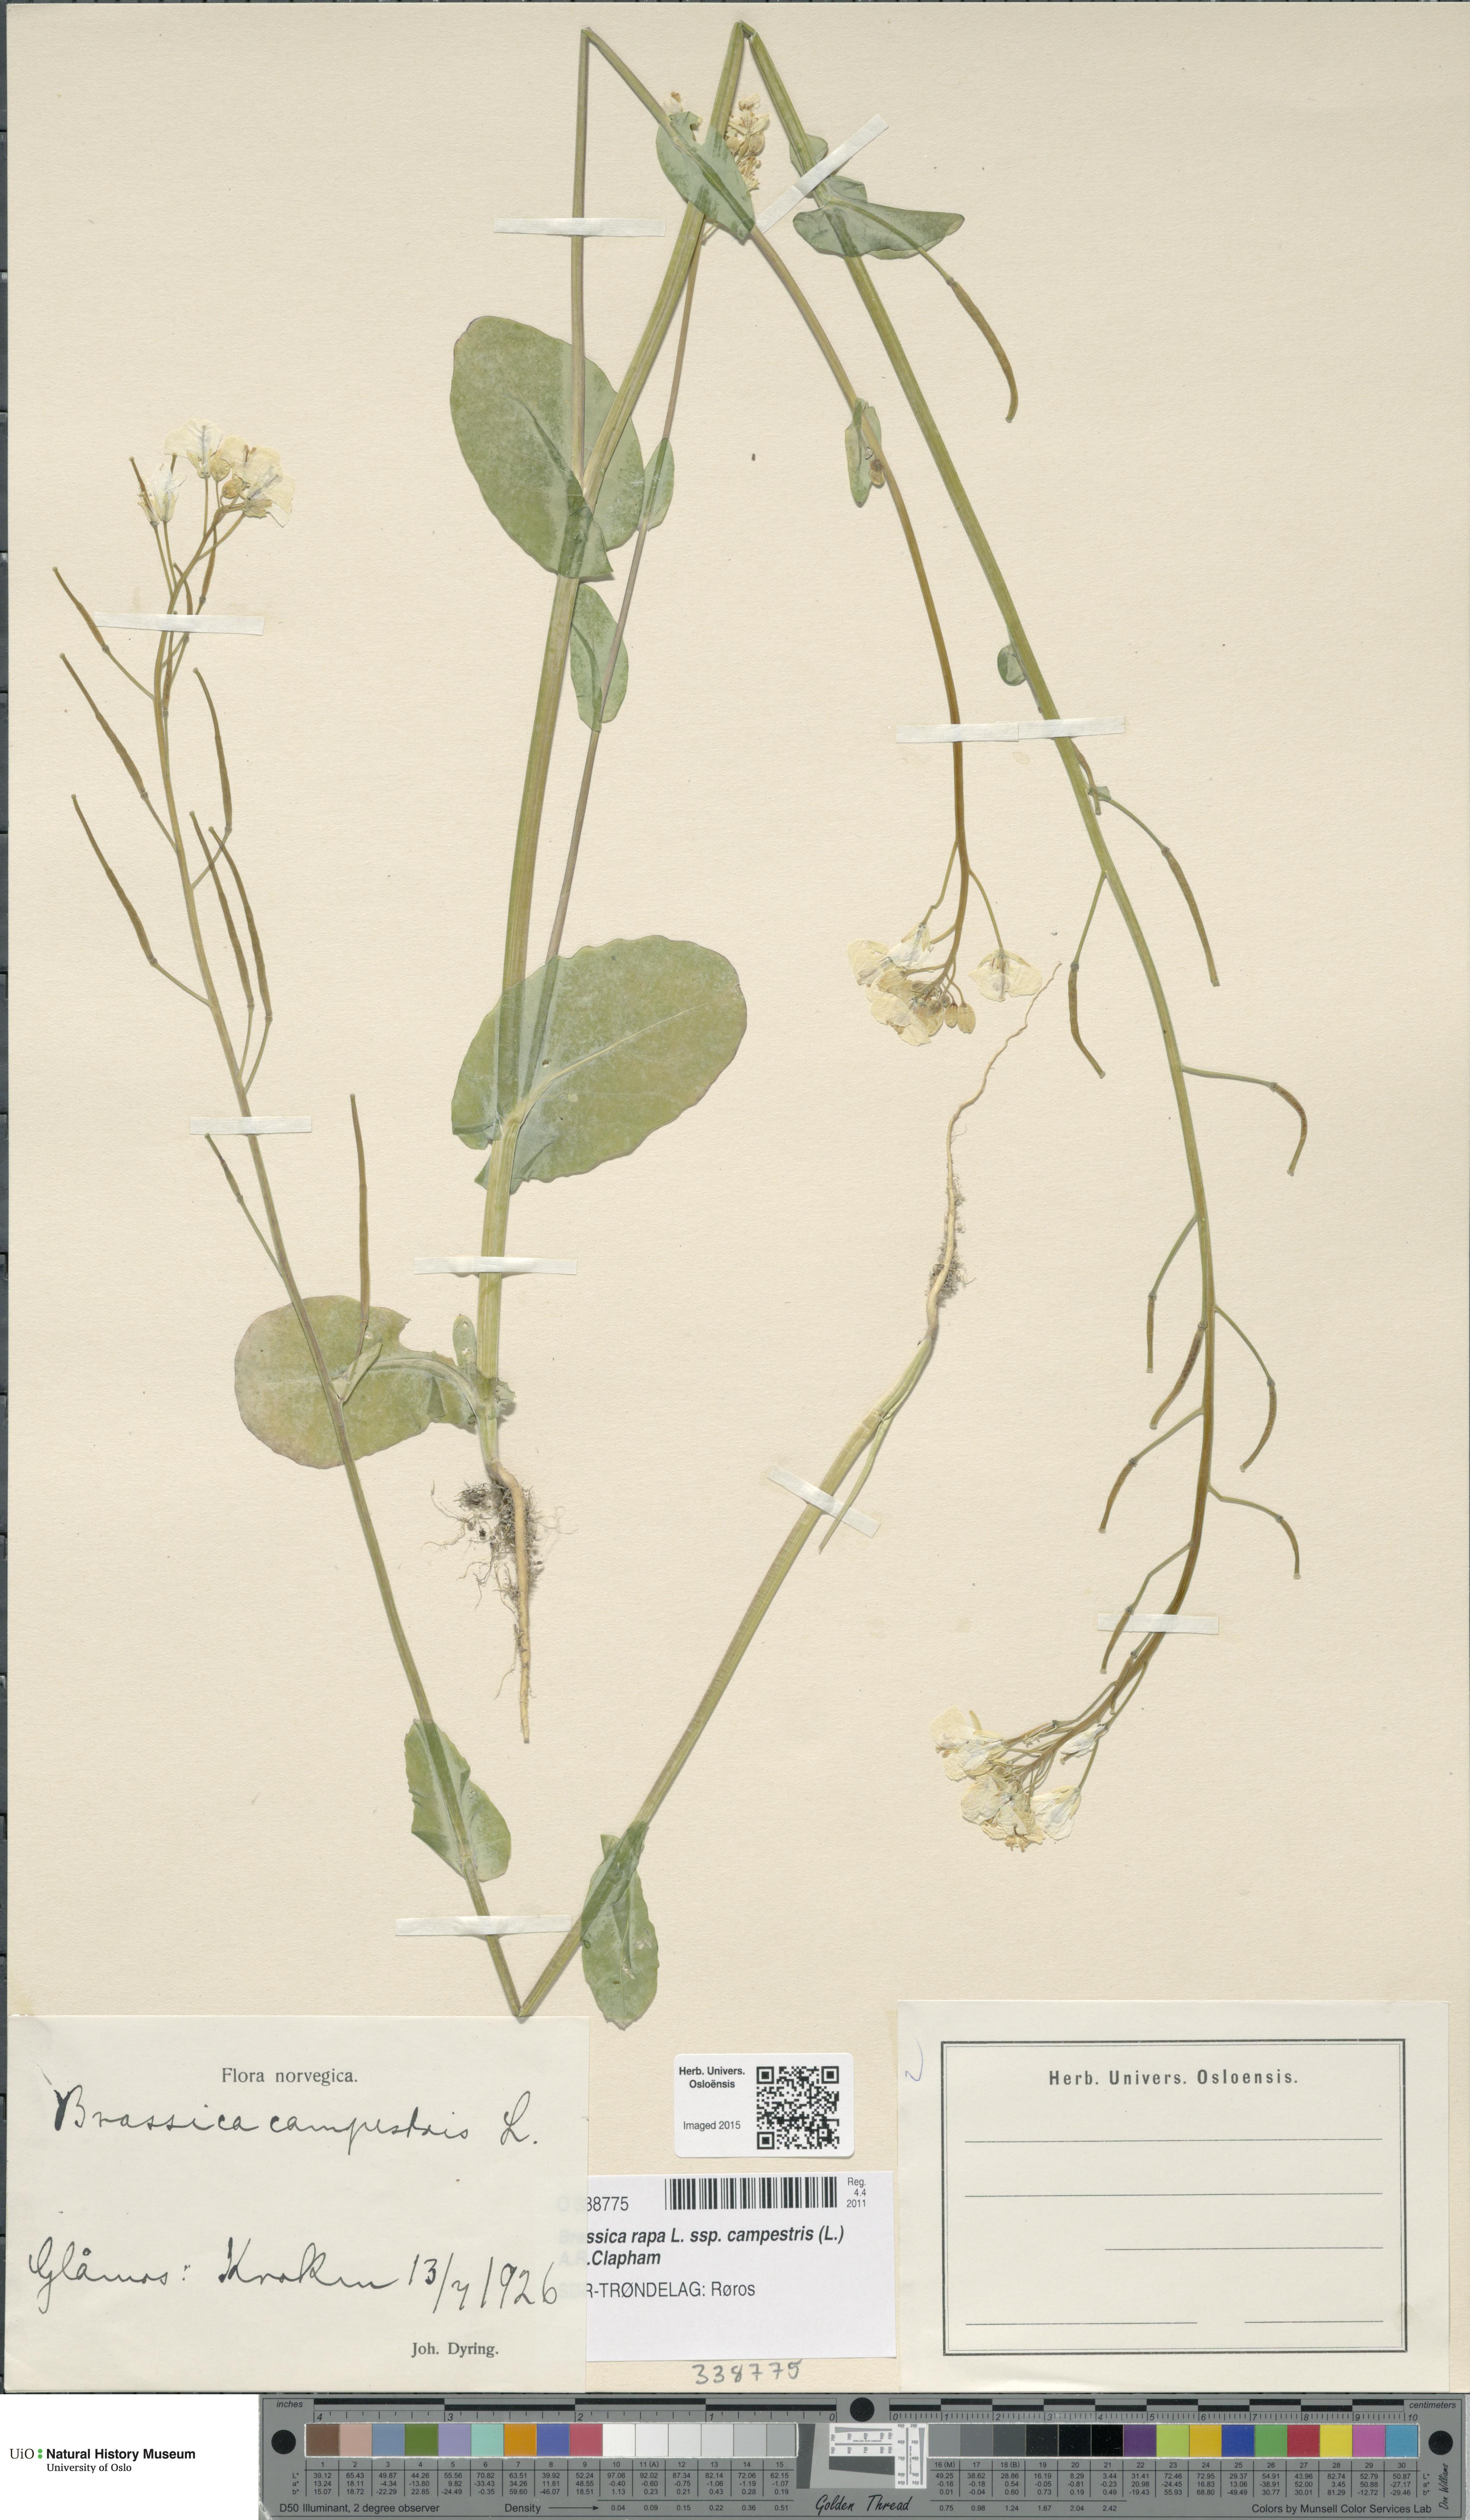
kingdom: Plantae
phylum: Tracheophyta
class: Magnoliopsida
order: Brassicales
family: Brassicaceae
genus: Brassica
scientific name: Brassica rapa
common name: Field mustard
